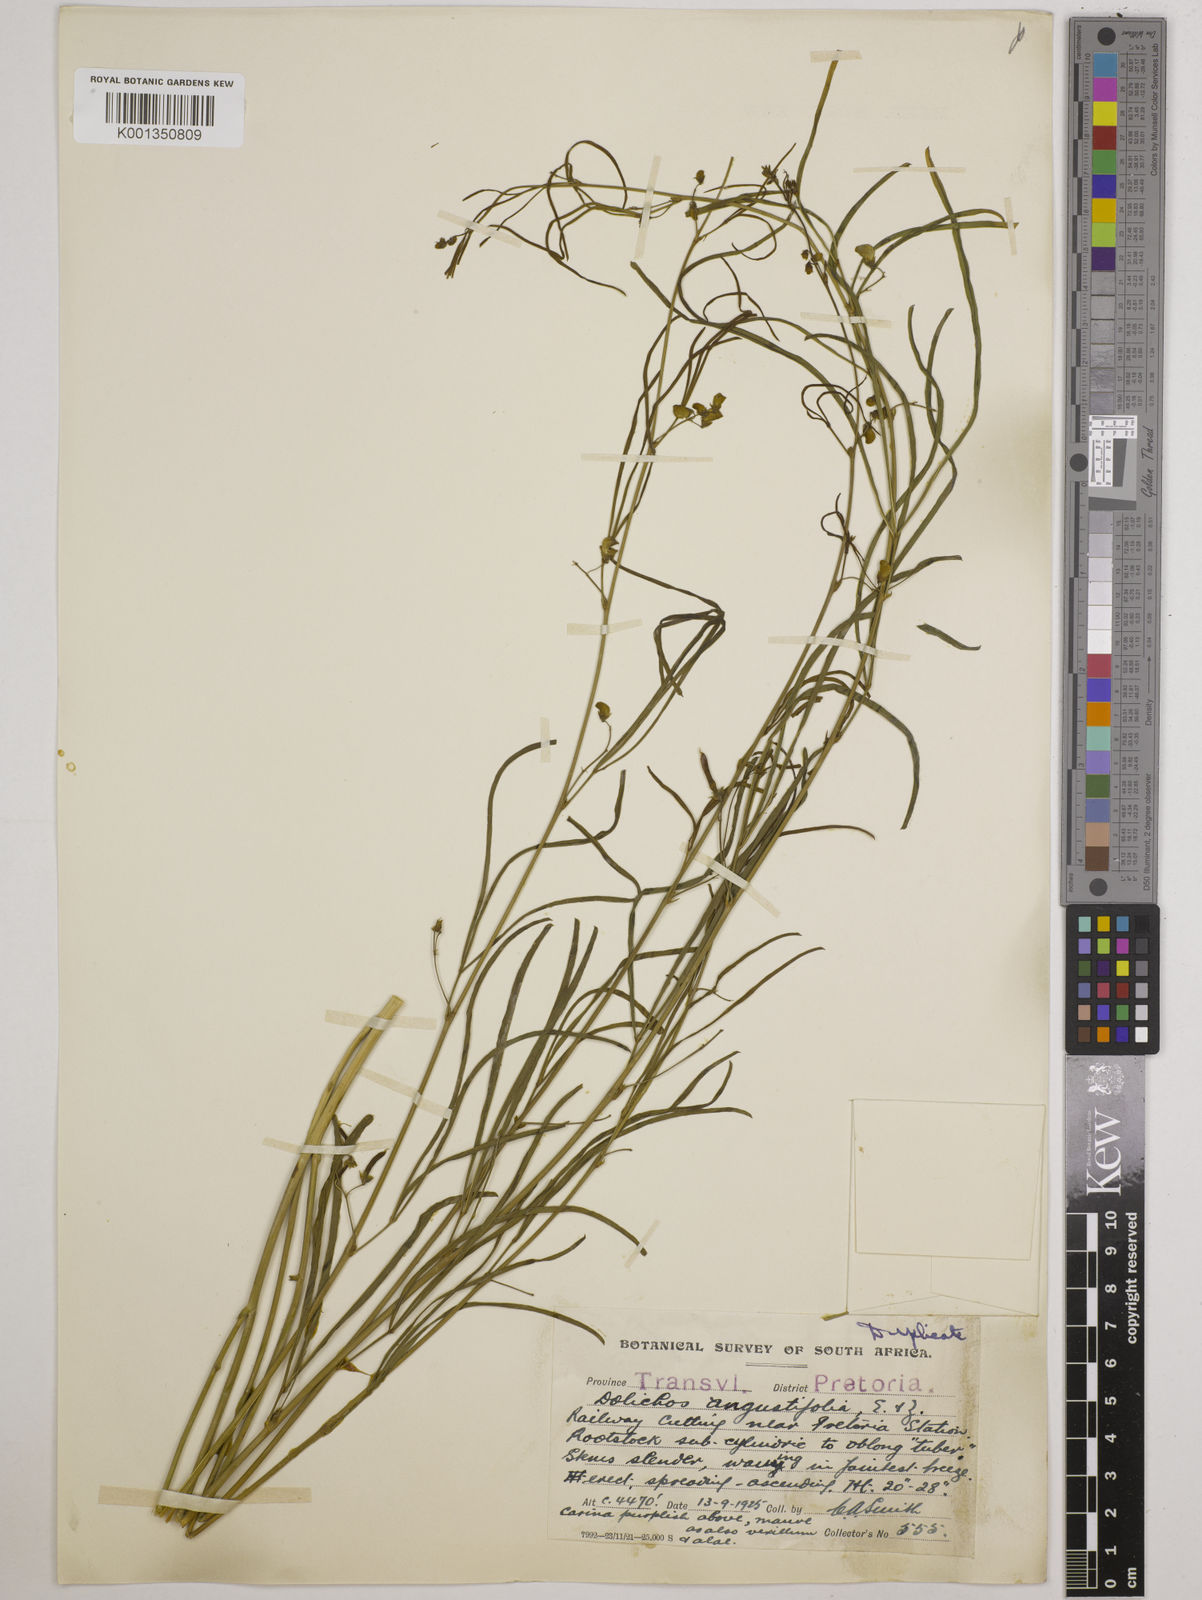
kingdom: Plantae
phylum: Tracheophyta
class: Magnoliopsida
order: Fabales
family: Fabaceae
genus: Dolichos
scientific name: Dolichos
